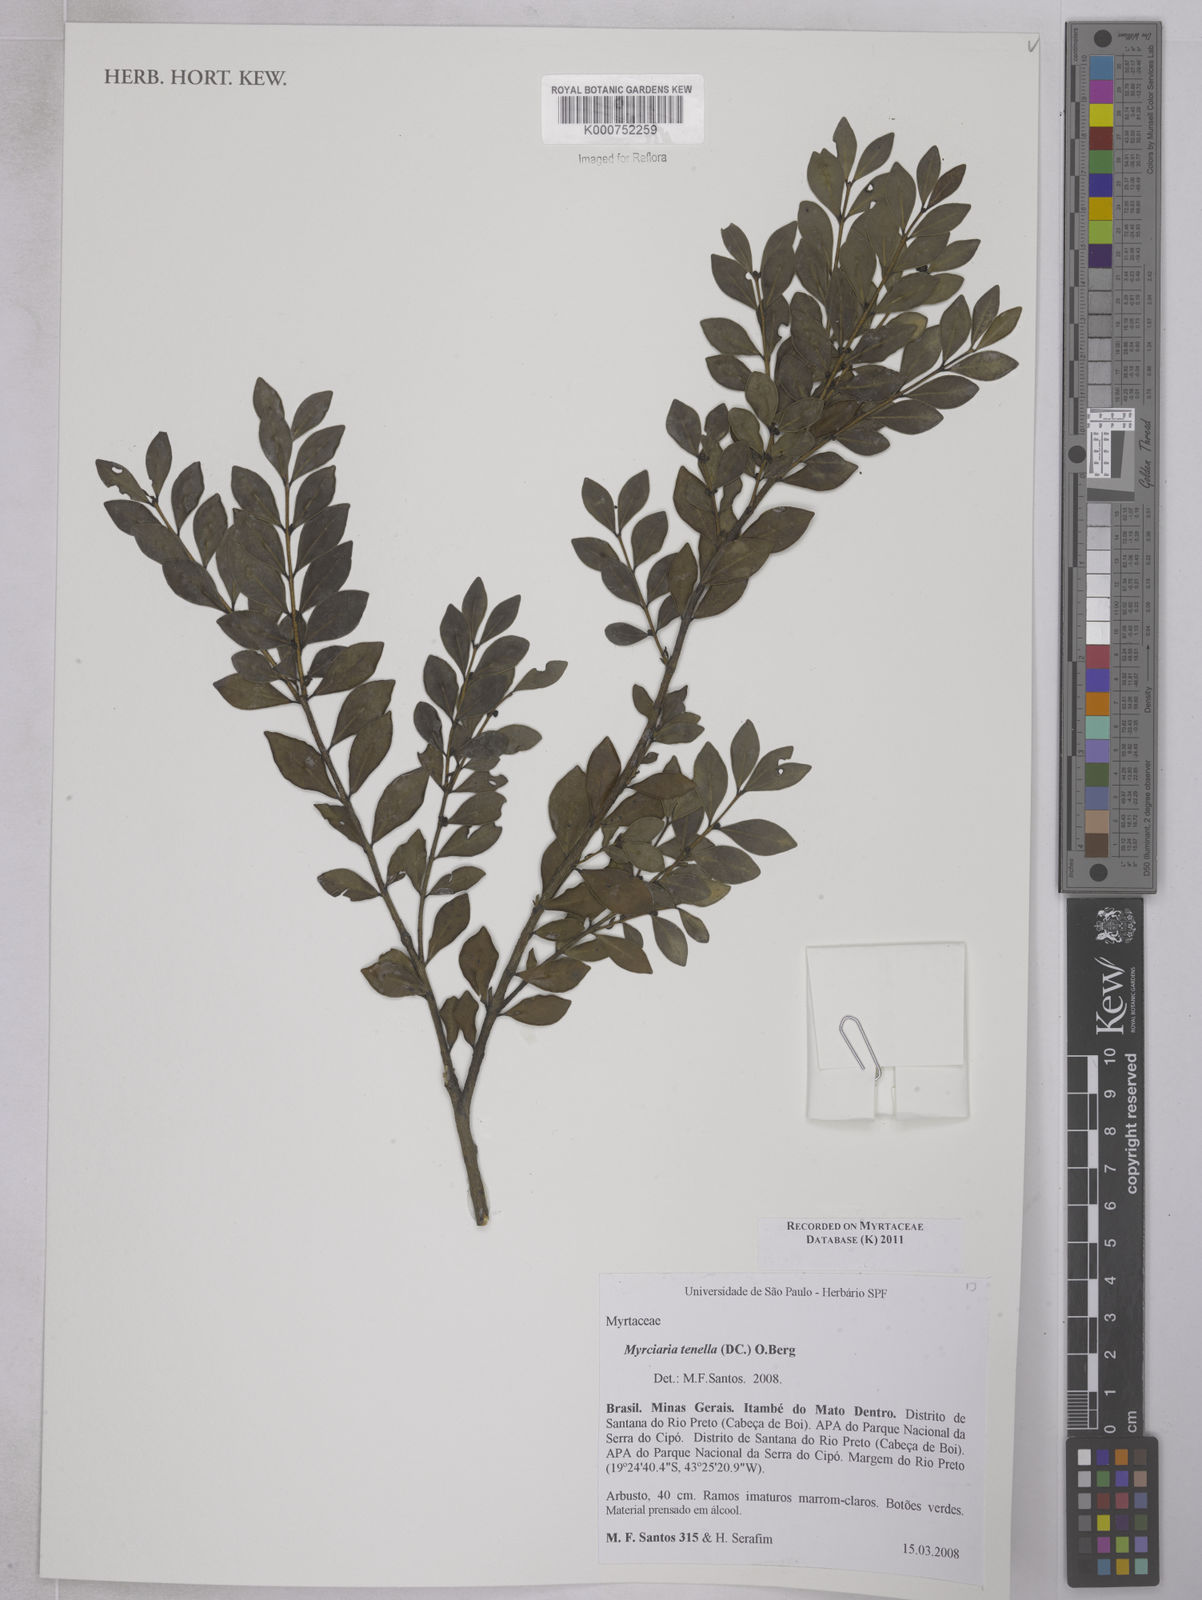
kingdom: Plantae
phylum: Tracheophyta
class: Magnoliopsida
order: Myrtales
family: Myrtaceae
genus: Myrciaria
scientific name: Myrciaria tenella
